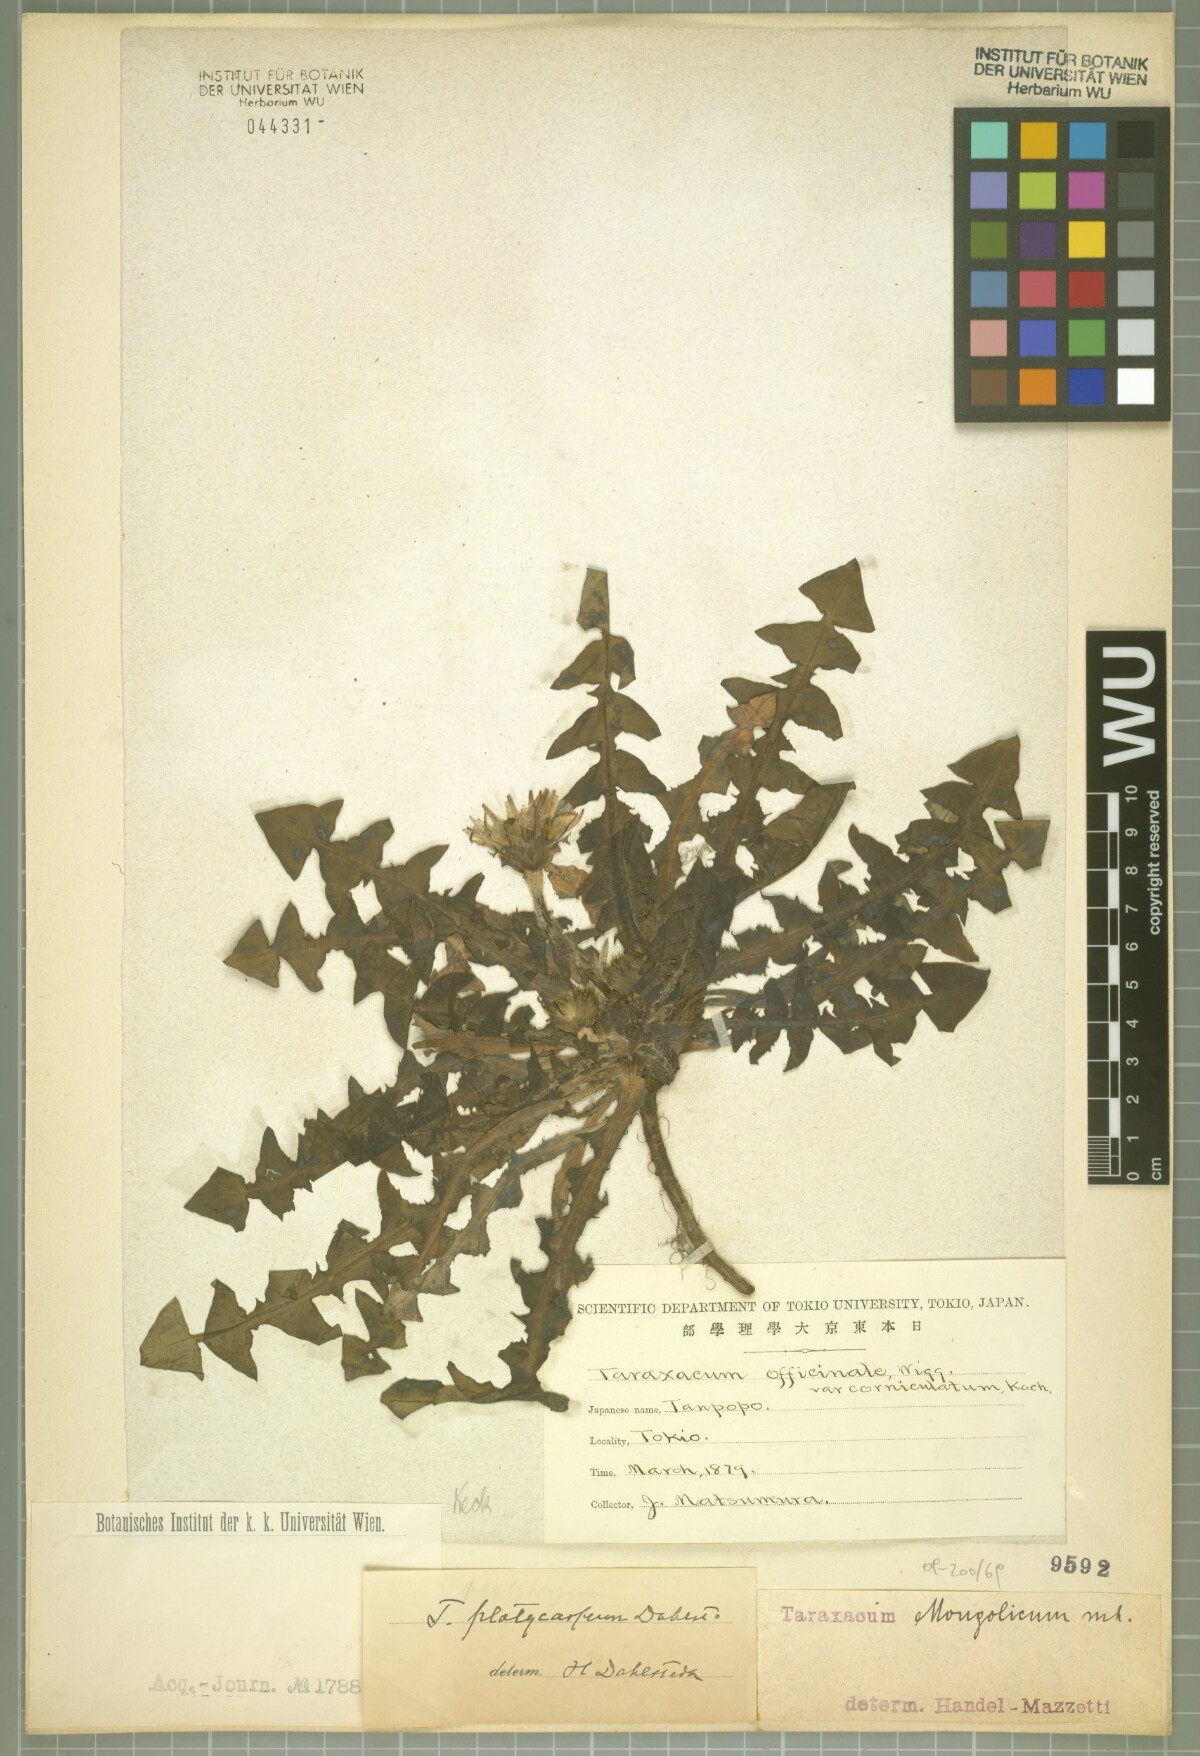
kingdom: Plantae
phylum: Tracheophyta
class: Magnoliopsida
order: Asterales
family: Asteraceae
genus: Taraxacum
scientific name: Taraxacum mongolicum
